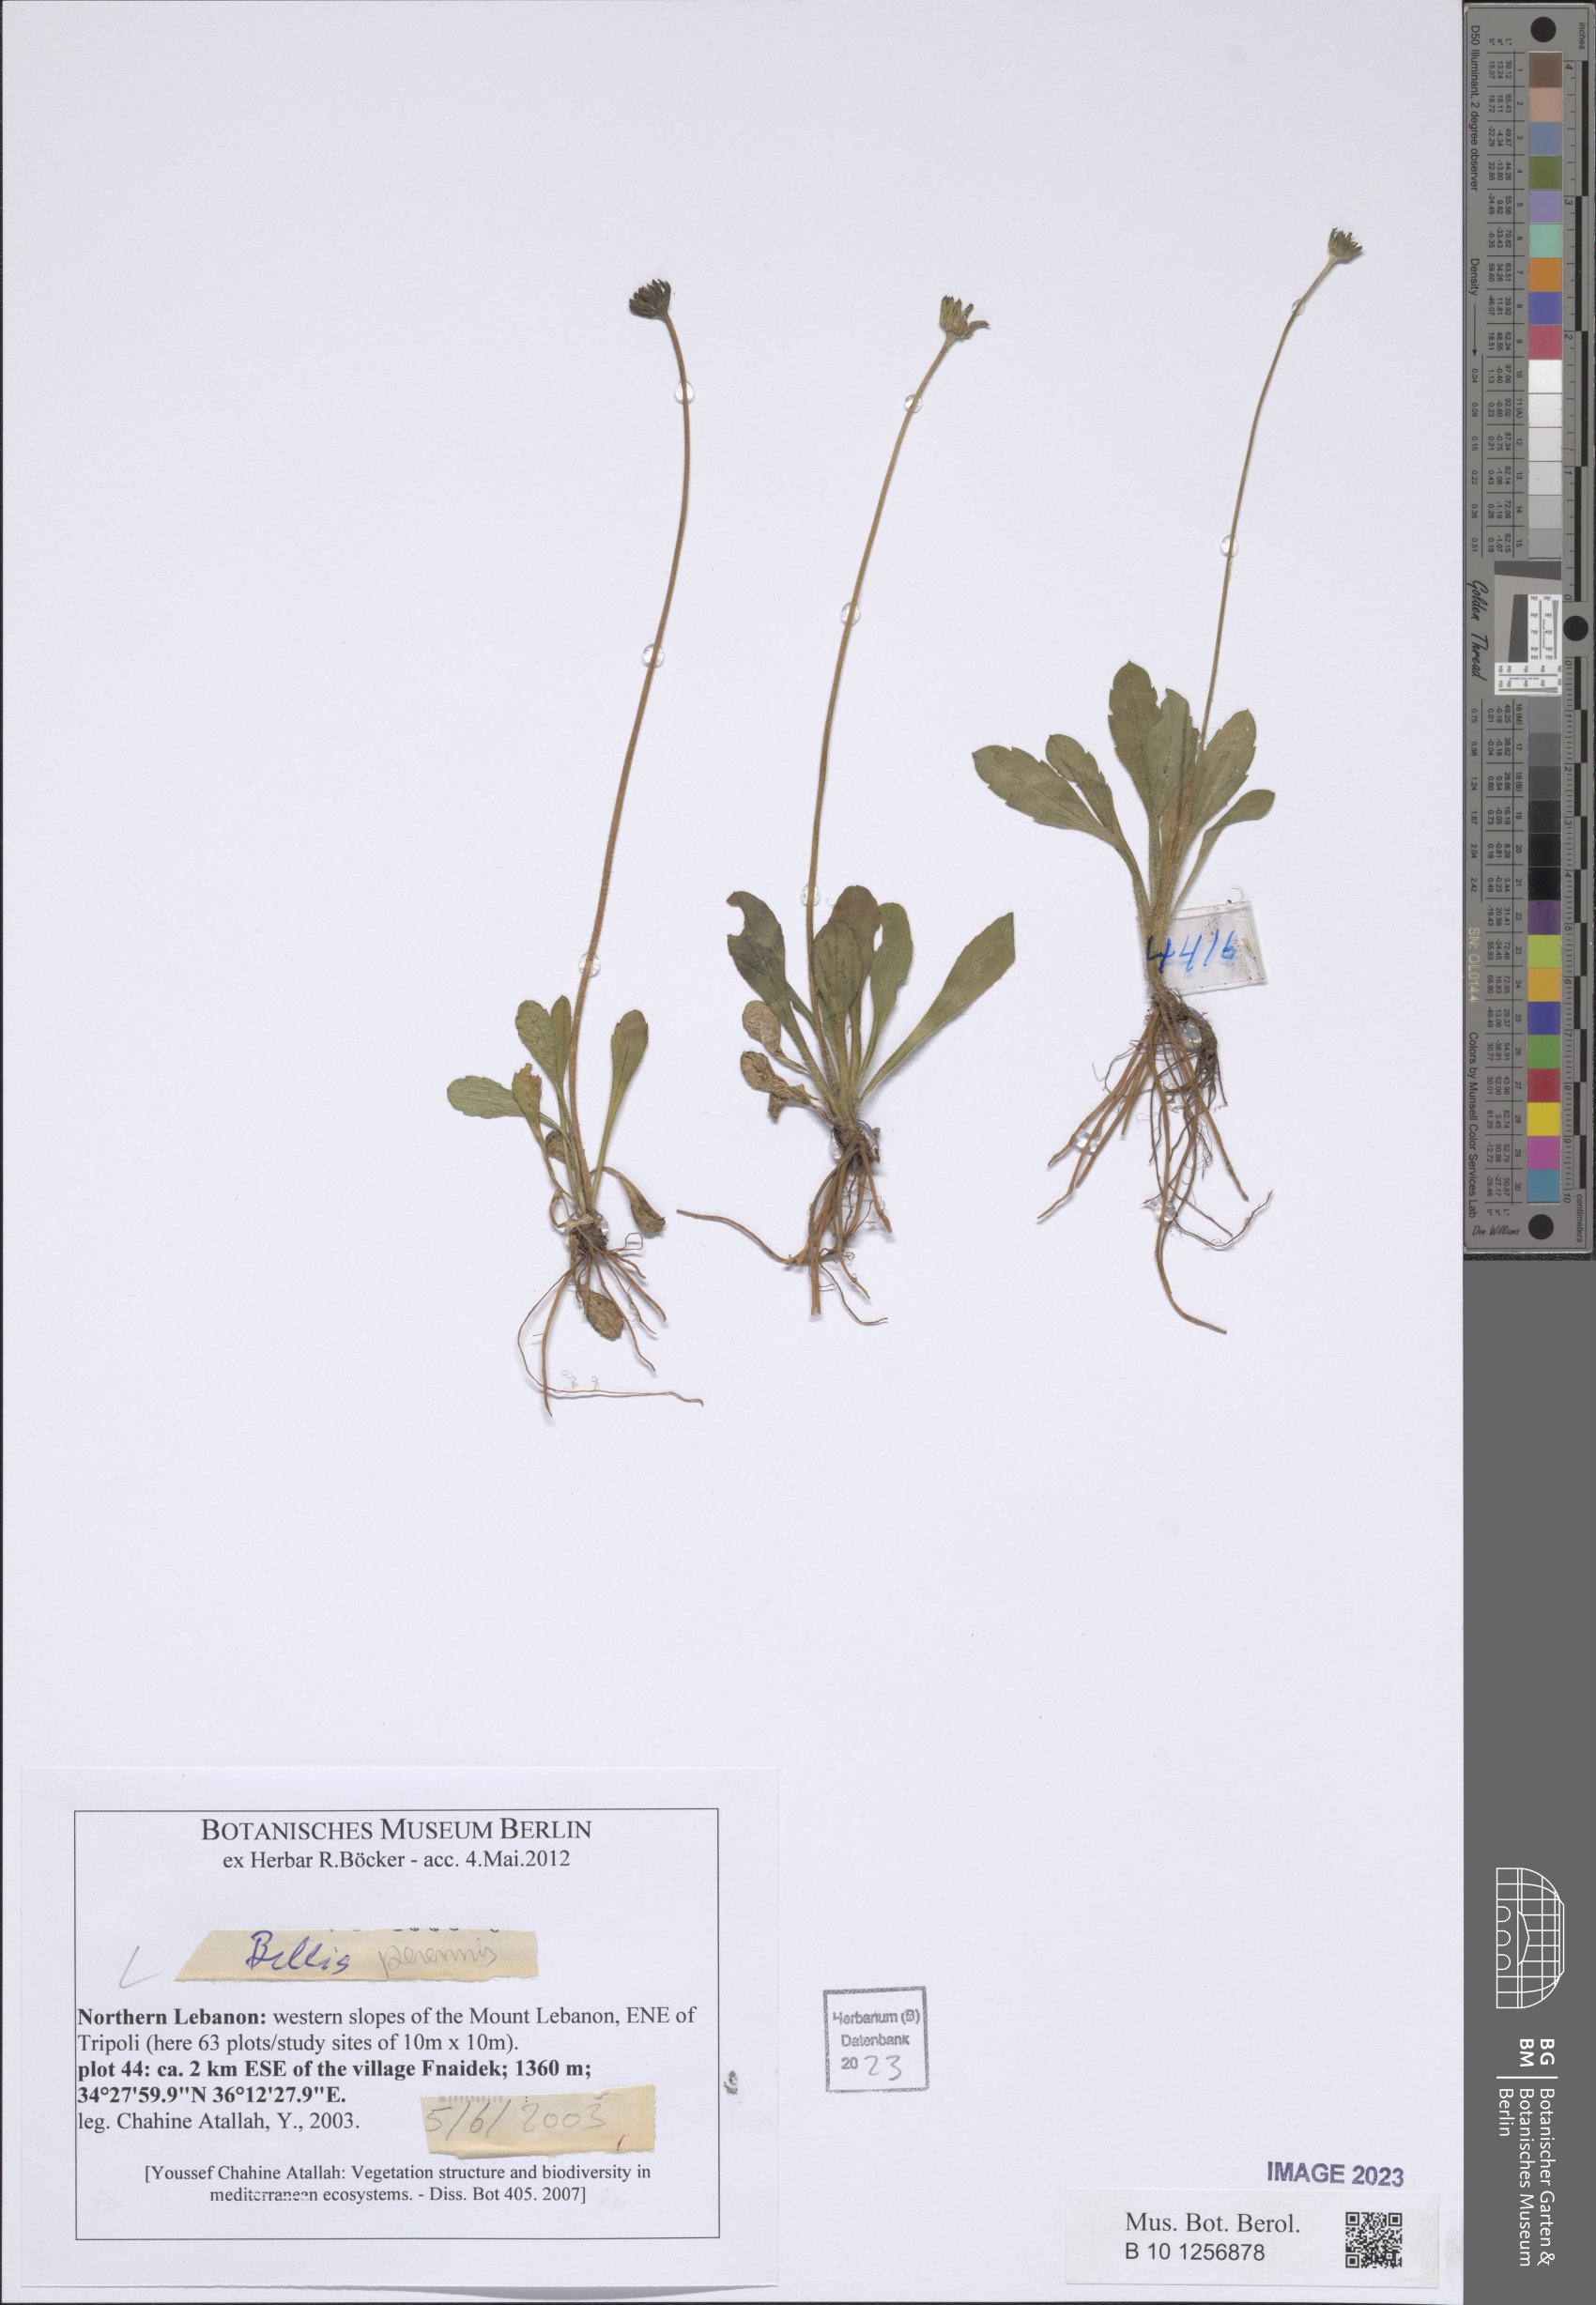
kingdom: Plantae
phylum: Tracheophyta
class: Magnoliopsida
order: Asterales
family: Asteraceae
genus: Bellis
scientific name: Bellis perennis
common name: Lawndaisy
